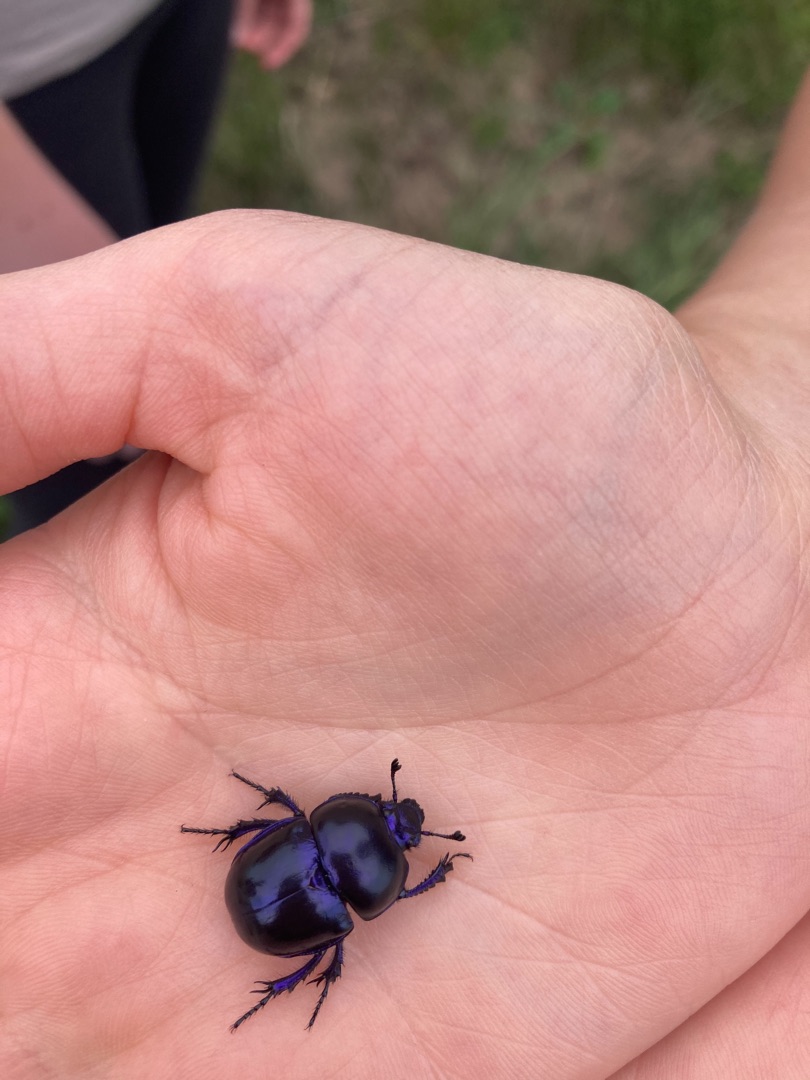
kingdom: Animalia
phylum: Arthropoda
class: Insecta
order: Coleoptera
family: Geotrupidae
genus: Trypocopris
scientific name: Trypocopris vernalis
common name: Glat skarnbasse
